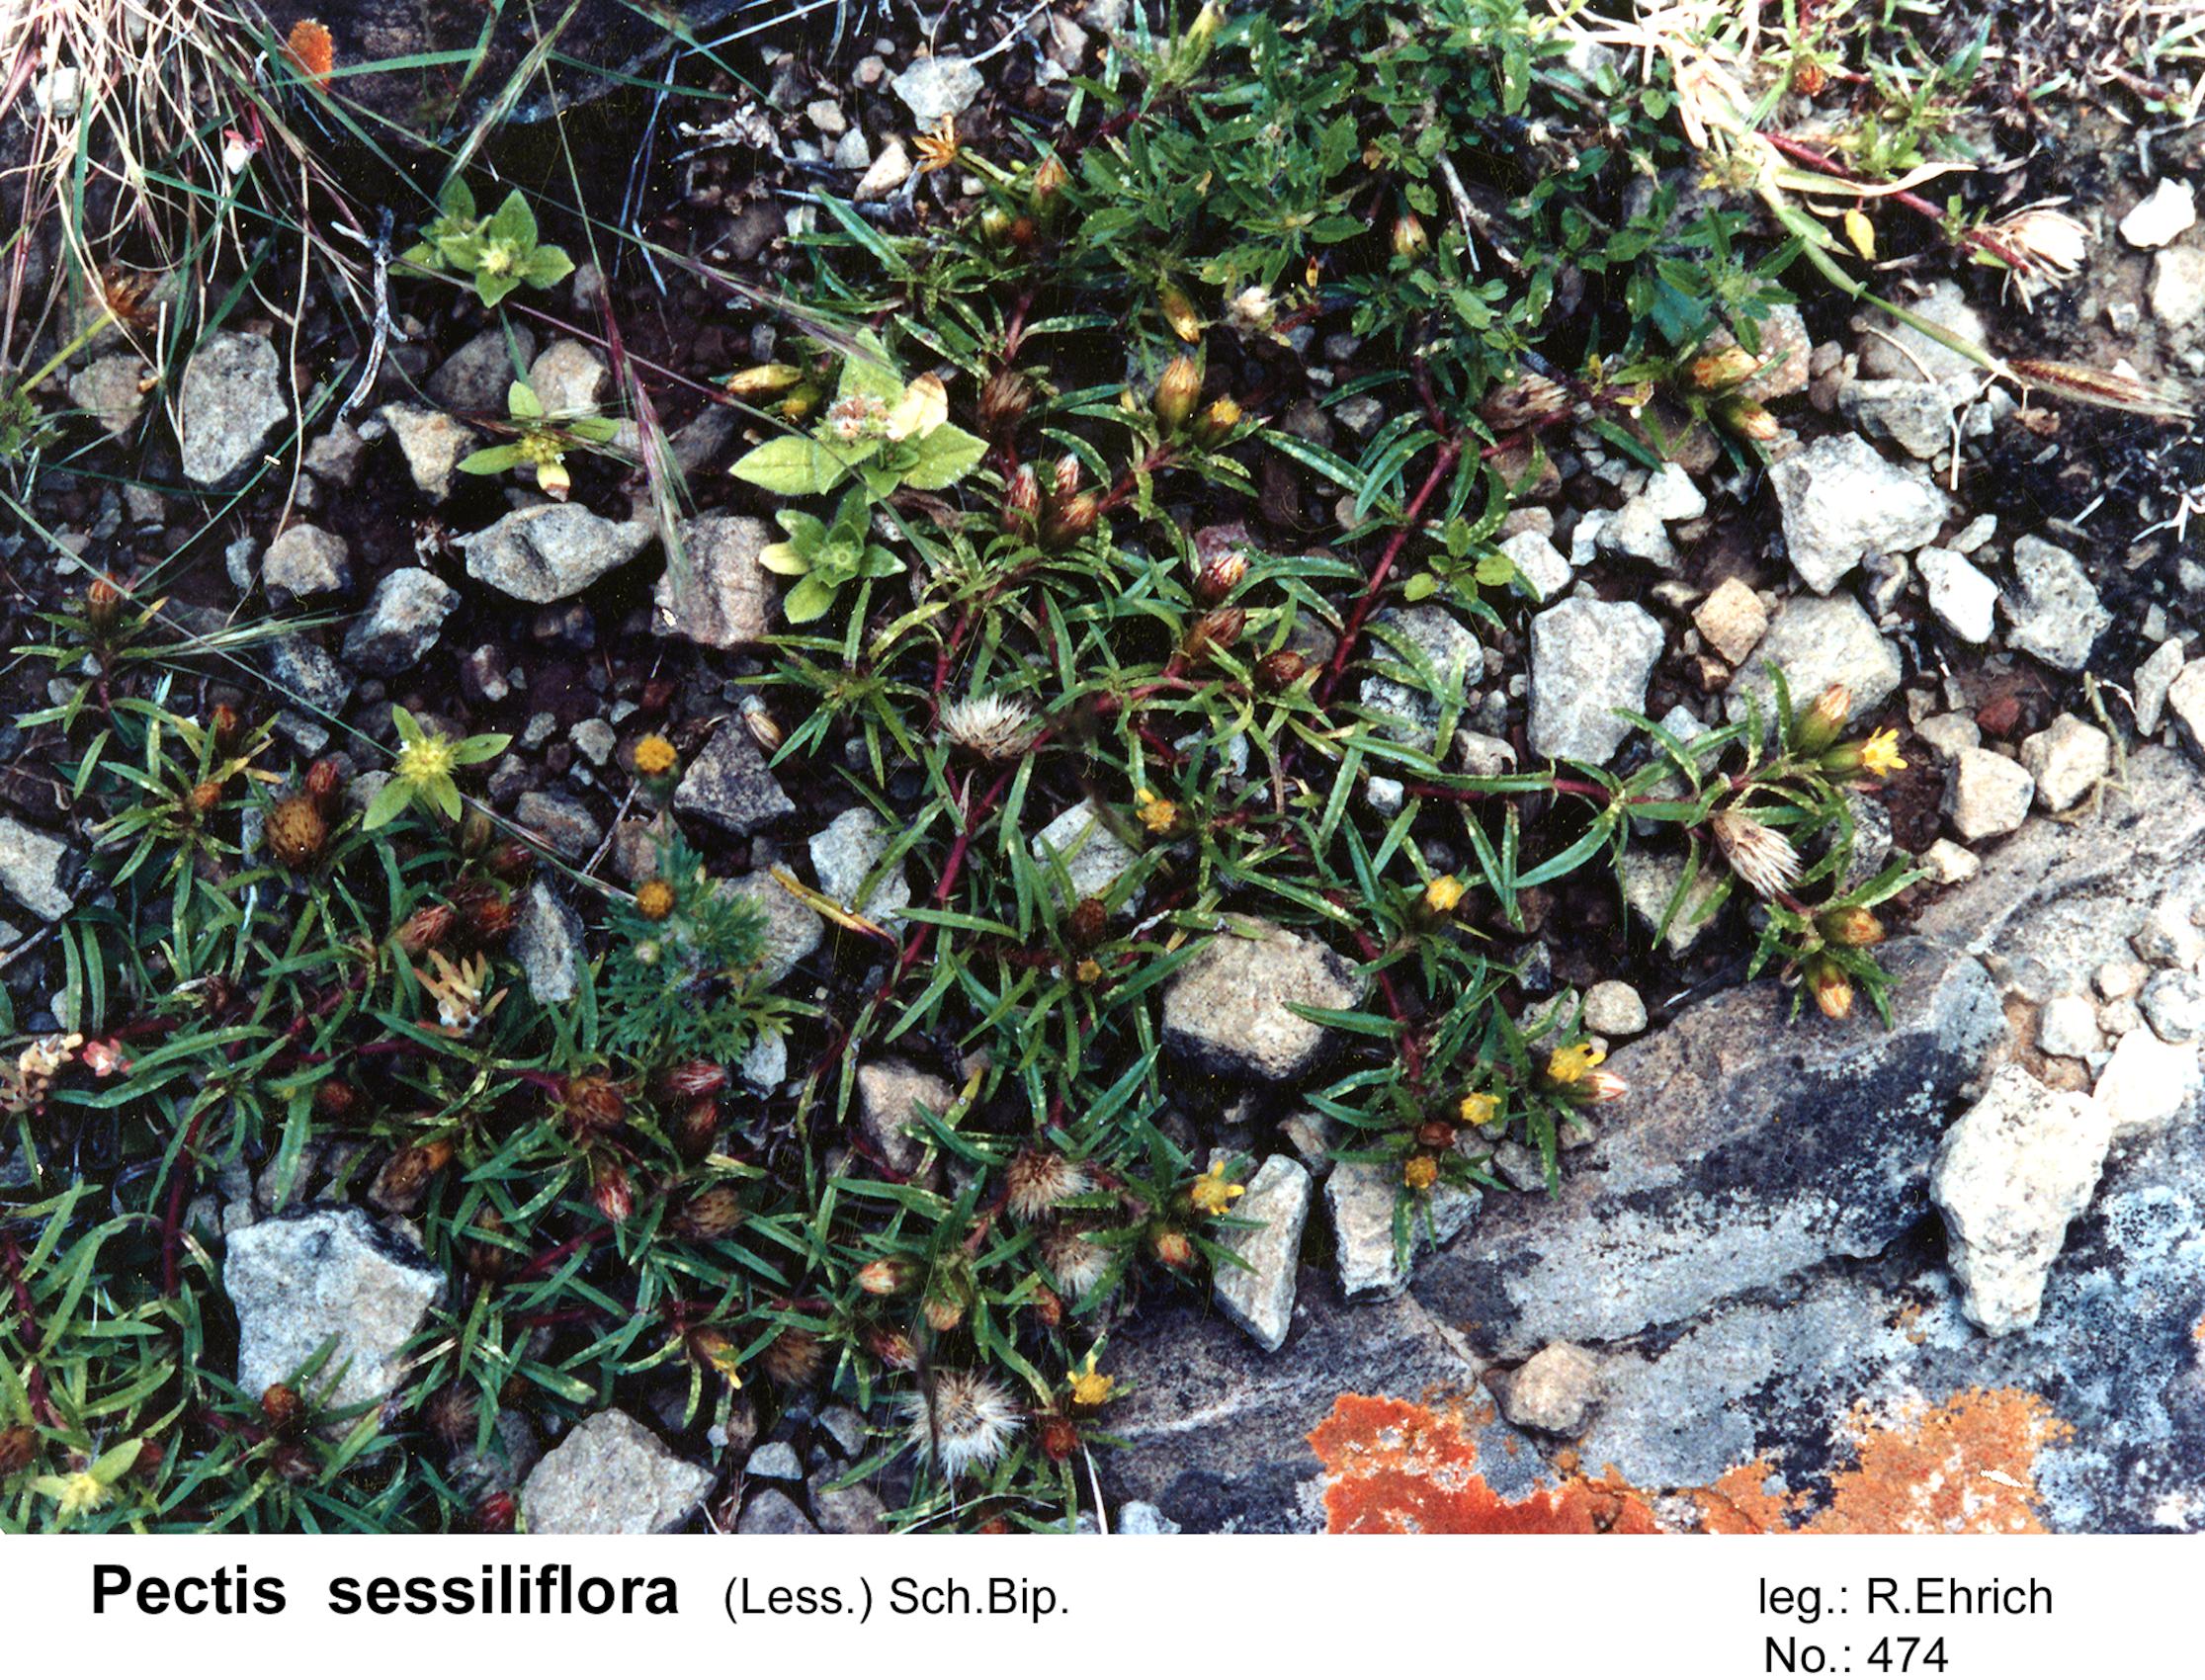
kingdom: Plantae
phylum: Tracheophyta
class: Magnoliopsida
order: Asterales
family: Asteraceae
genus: Pectis
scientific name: Pectis sessiliflora
